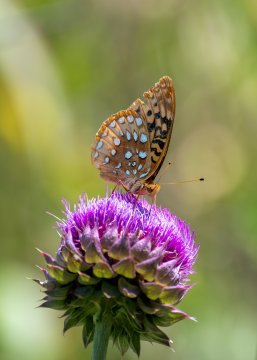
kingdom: Animalia
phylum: Arthropoda
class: Insecta
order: Lepidoptera
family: Nymphalidae
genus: Speyeria
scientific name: Speyeria cybele
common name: Great Spangled Fritillary
